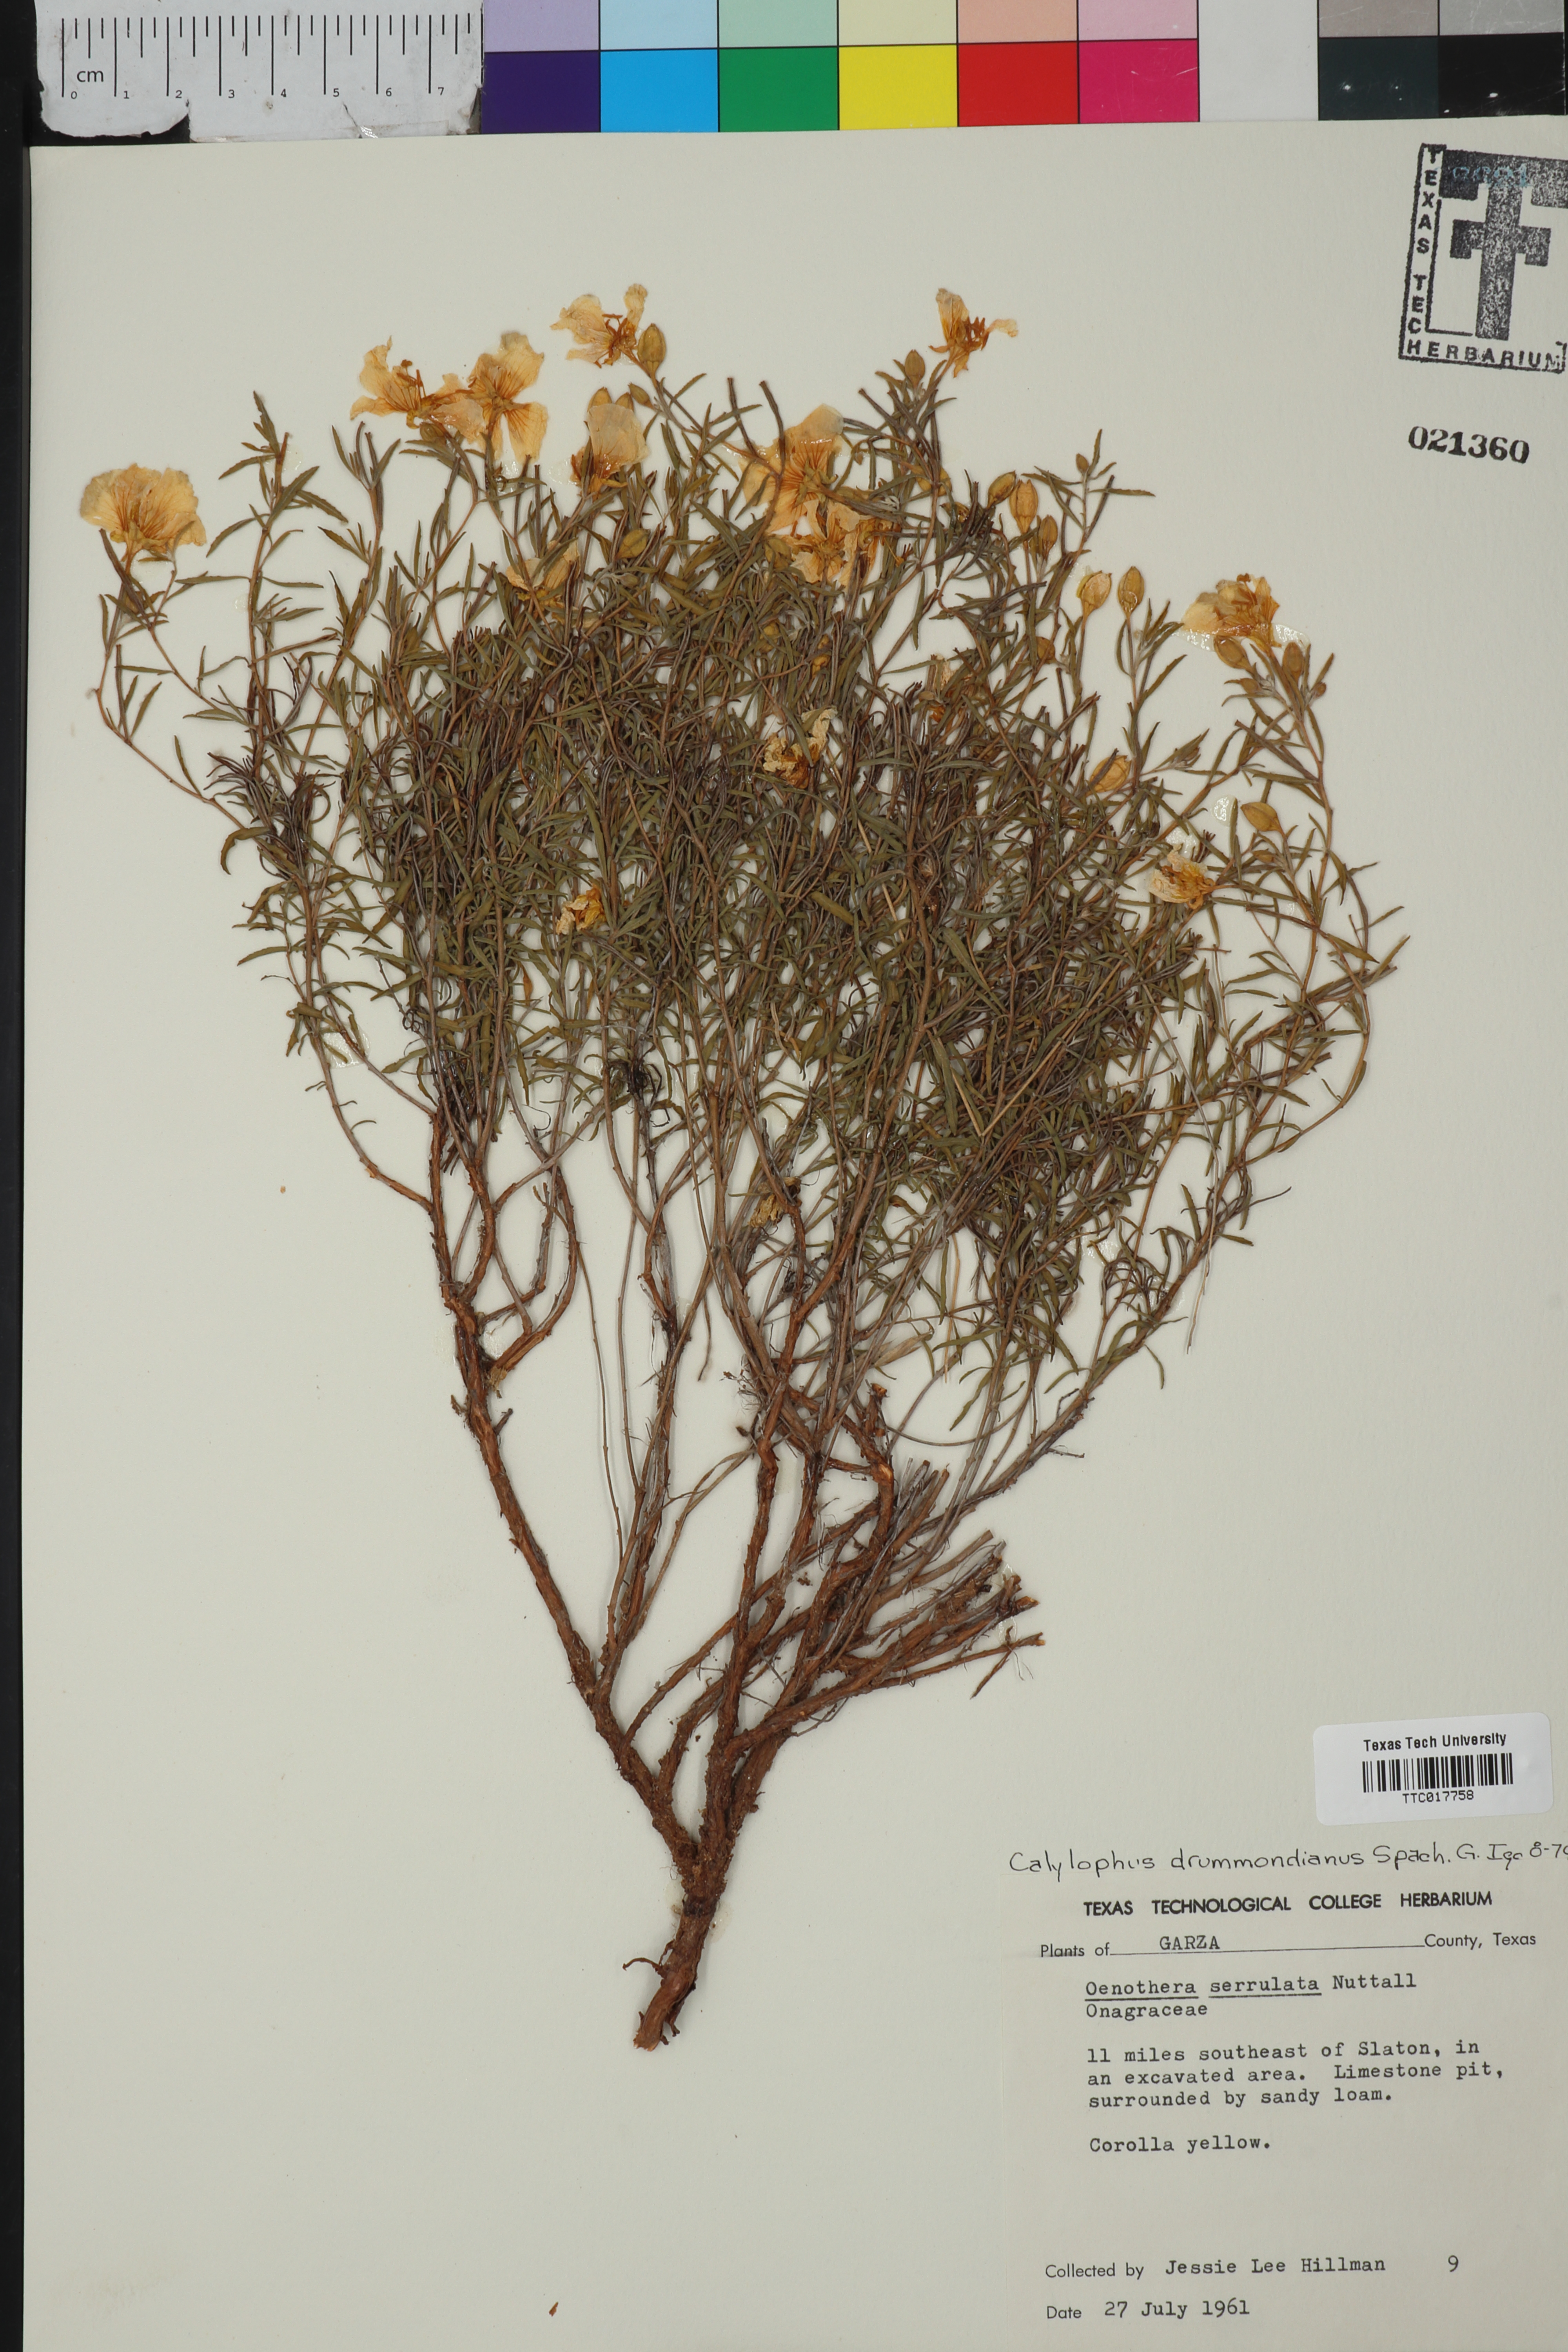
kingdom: Plantae
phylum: Tracheophyta
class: Magnoliopsida
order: Myrtales
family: Onagraceae
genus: Oenothera
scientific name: Oenothera hartwegii
